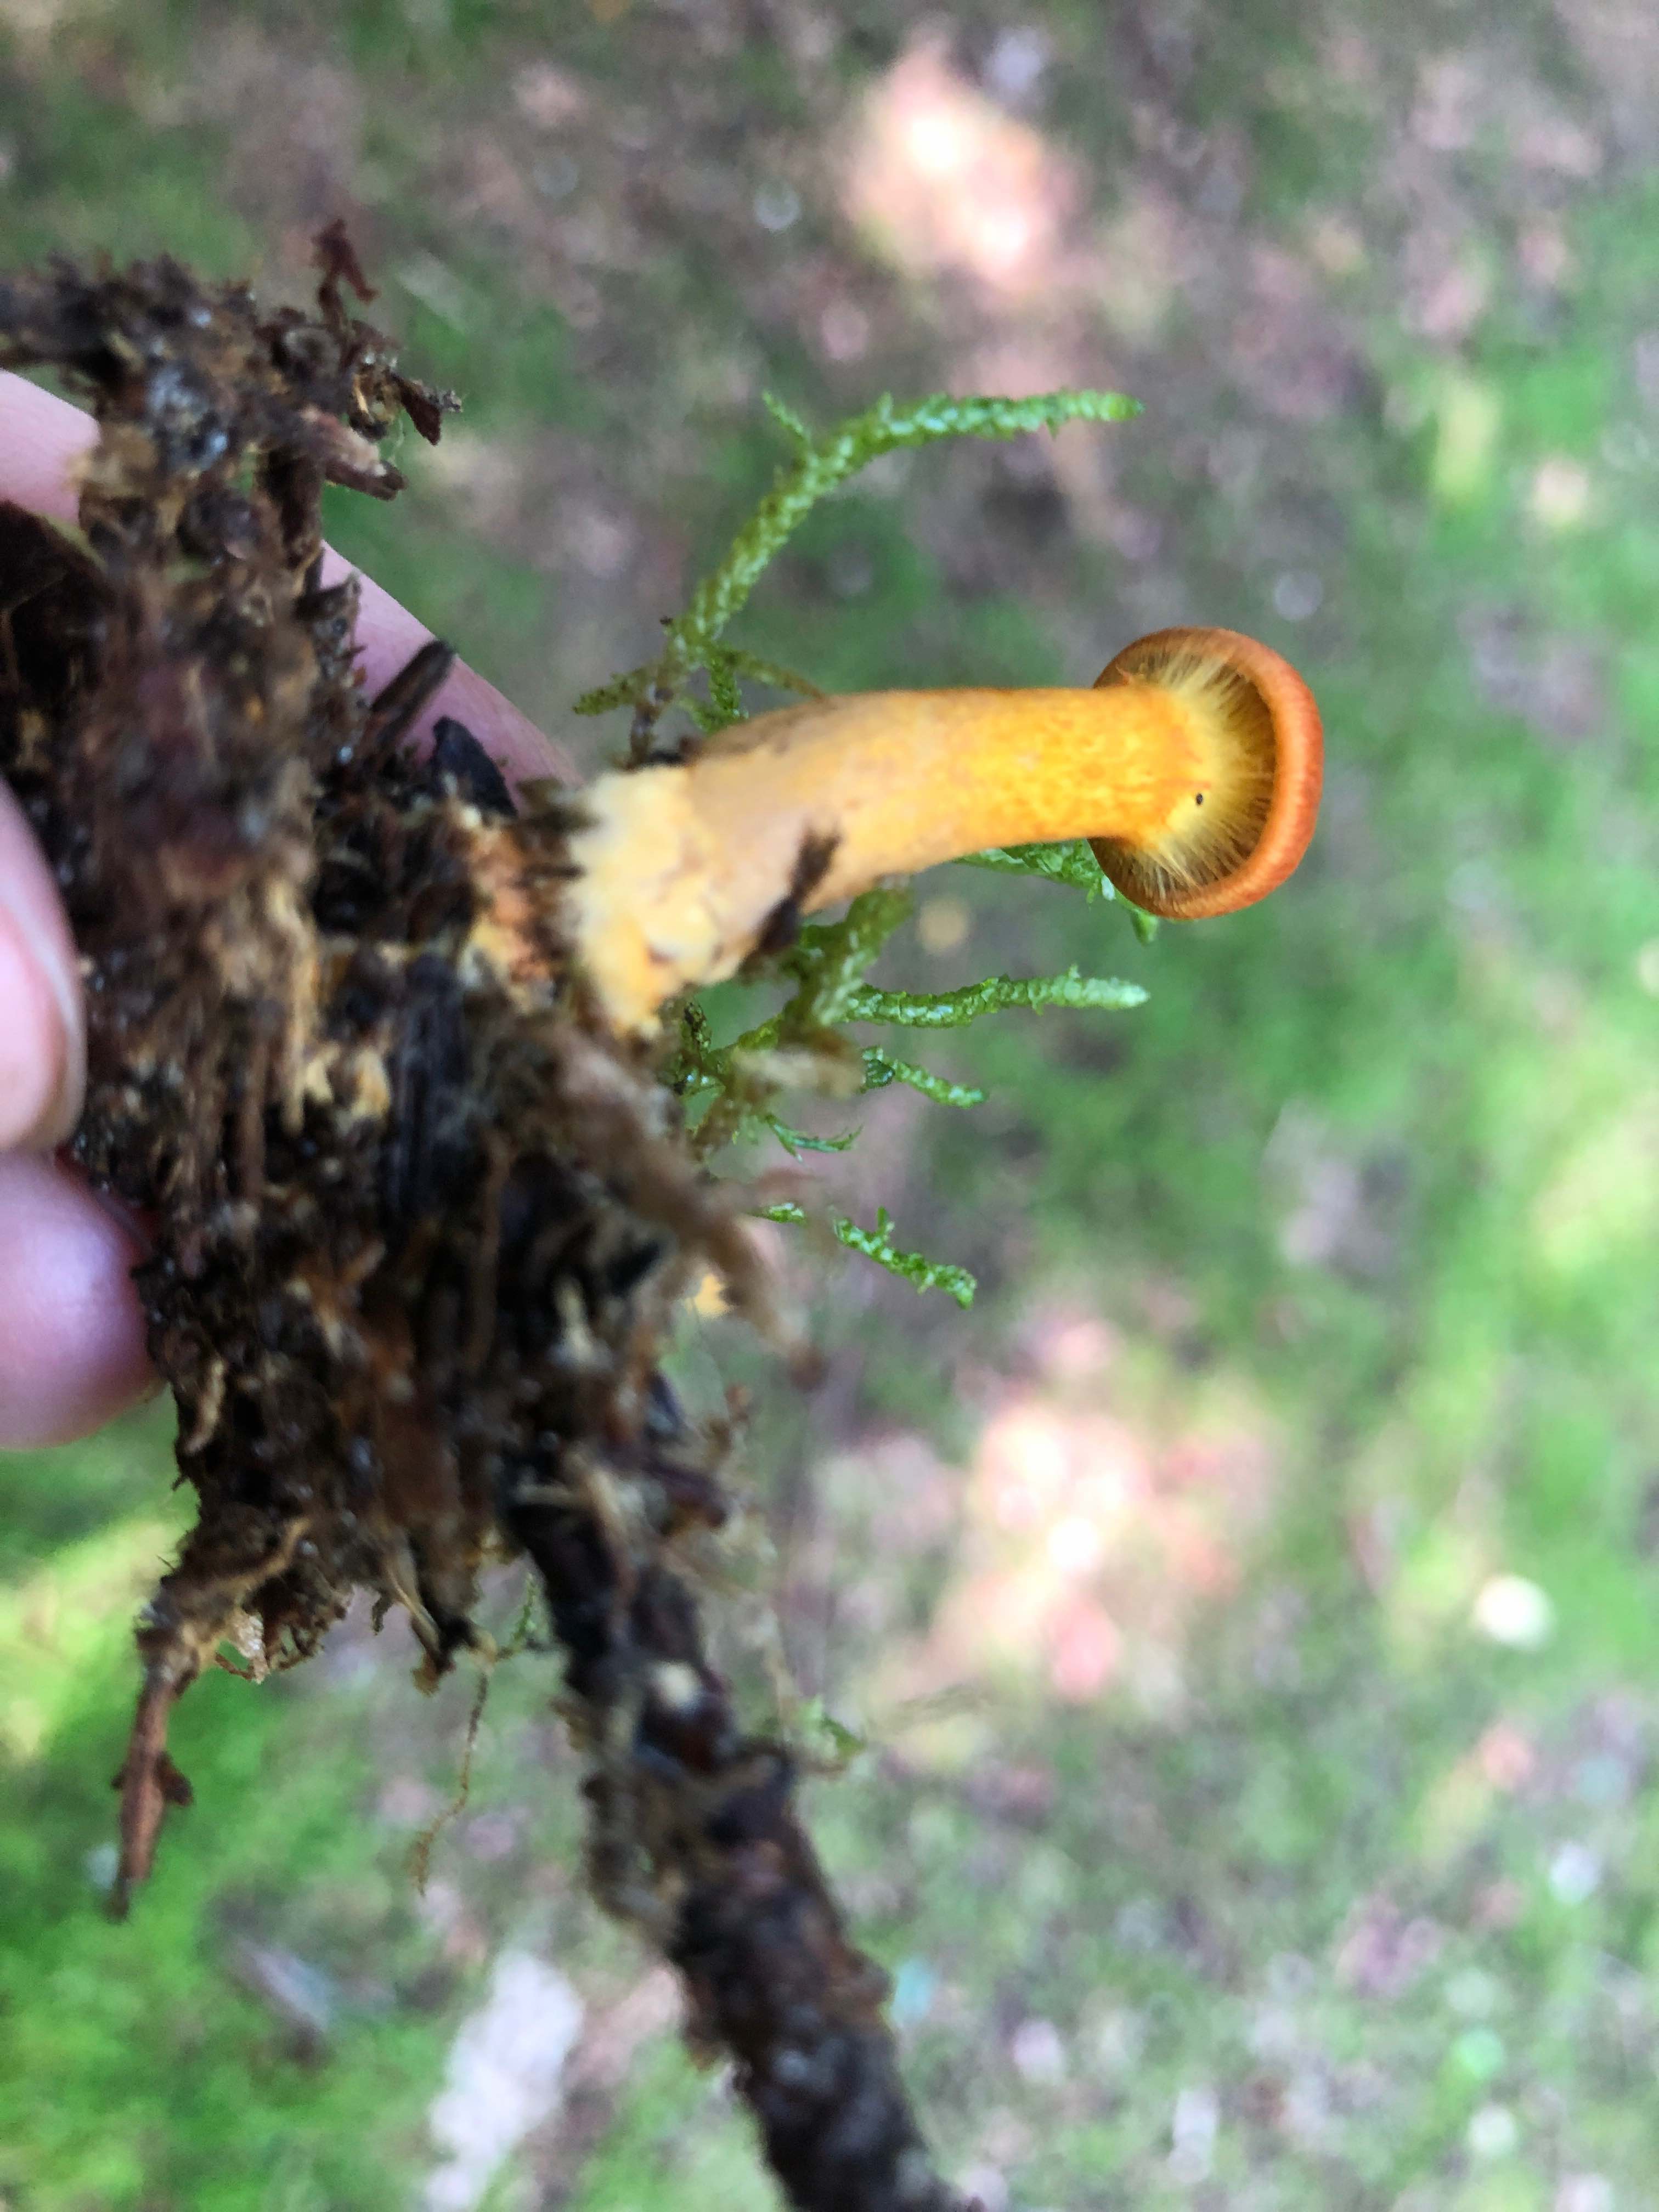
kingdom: Fungi
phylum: Basidiomycota
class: Agaricomycetes
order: Agaricales
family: Cortinariaceae
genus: Cortinarius
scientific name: Cortinarius malicorius
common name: grønkødet slørhat
